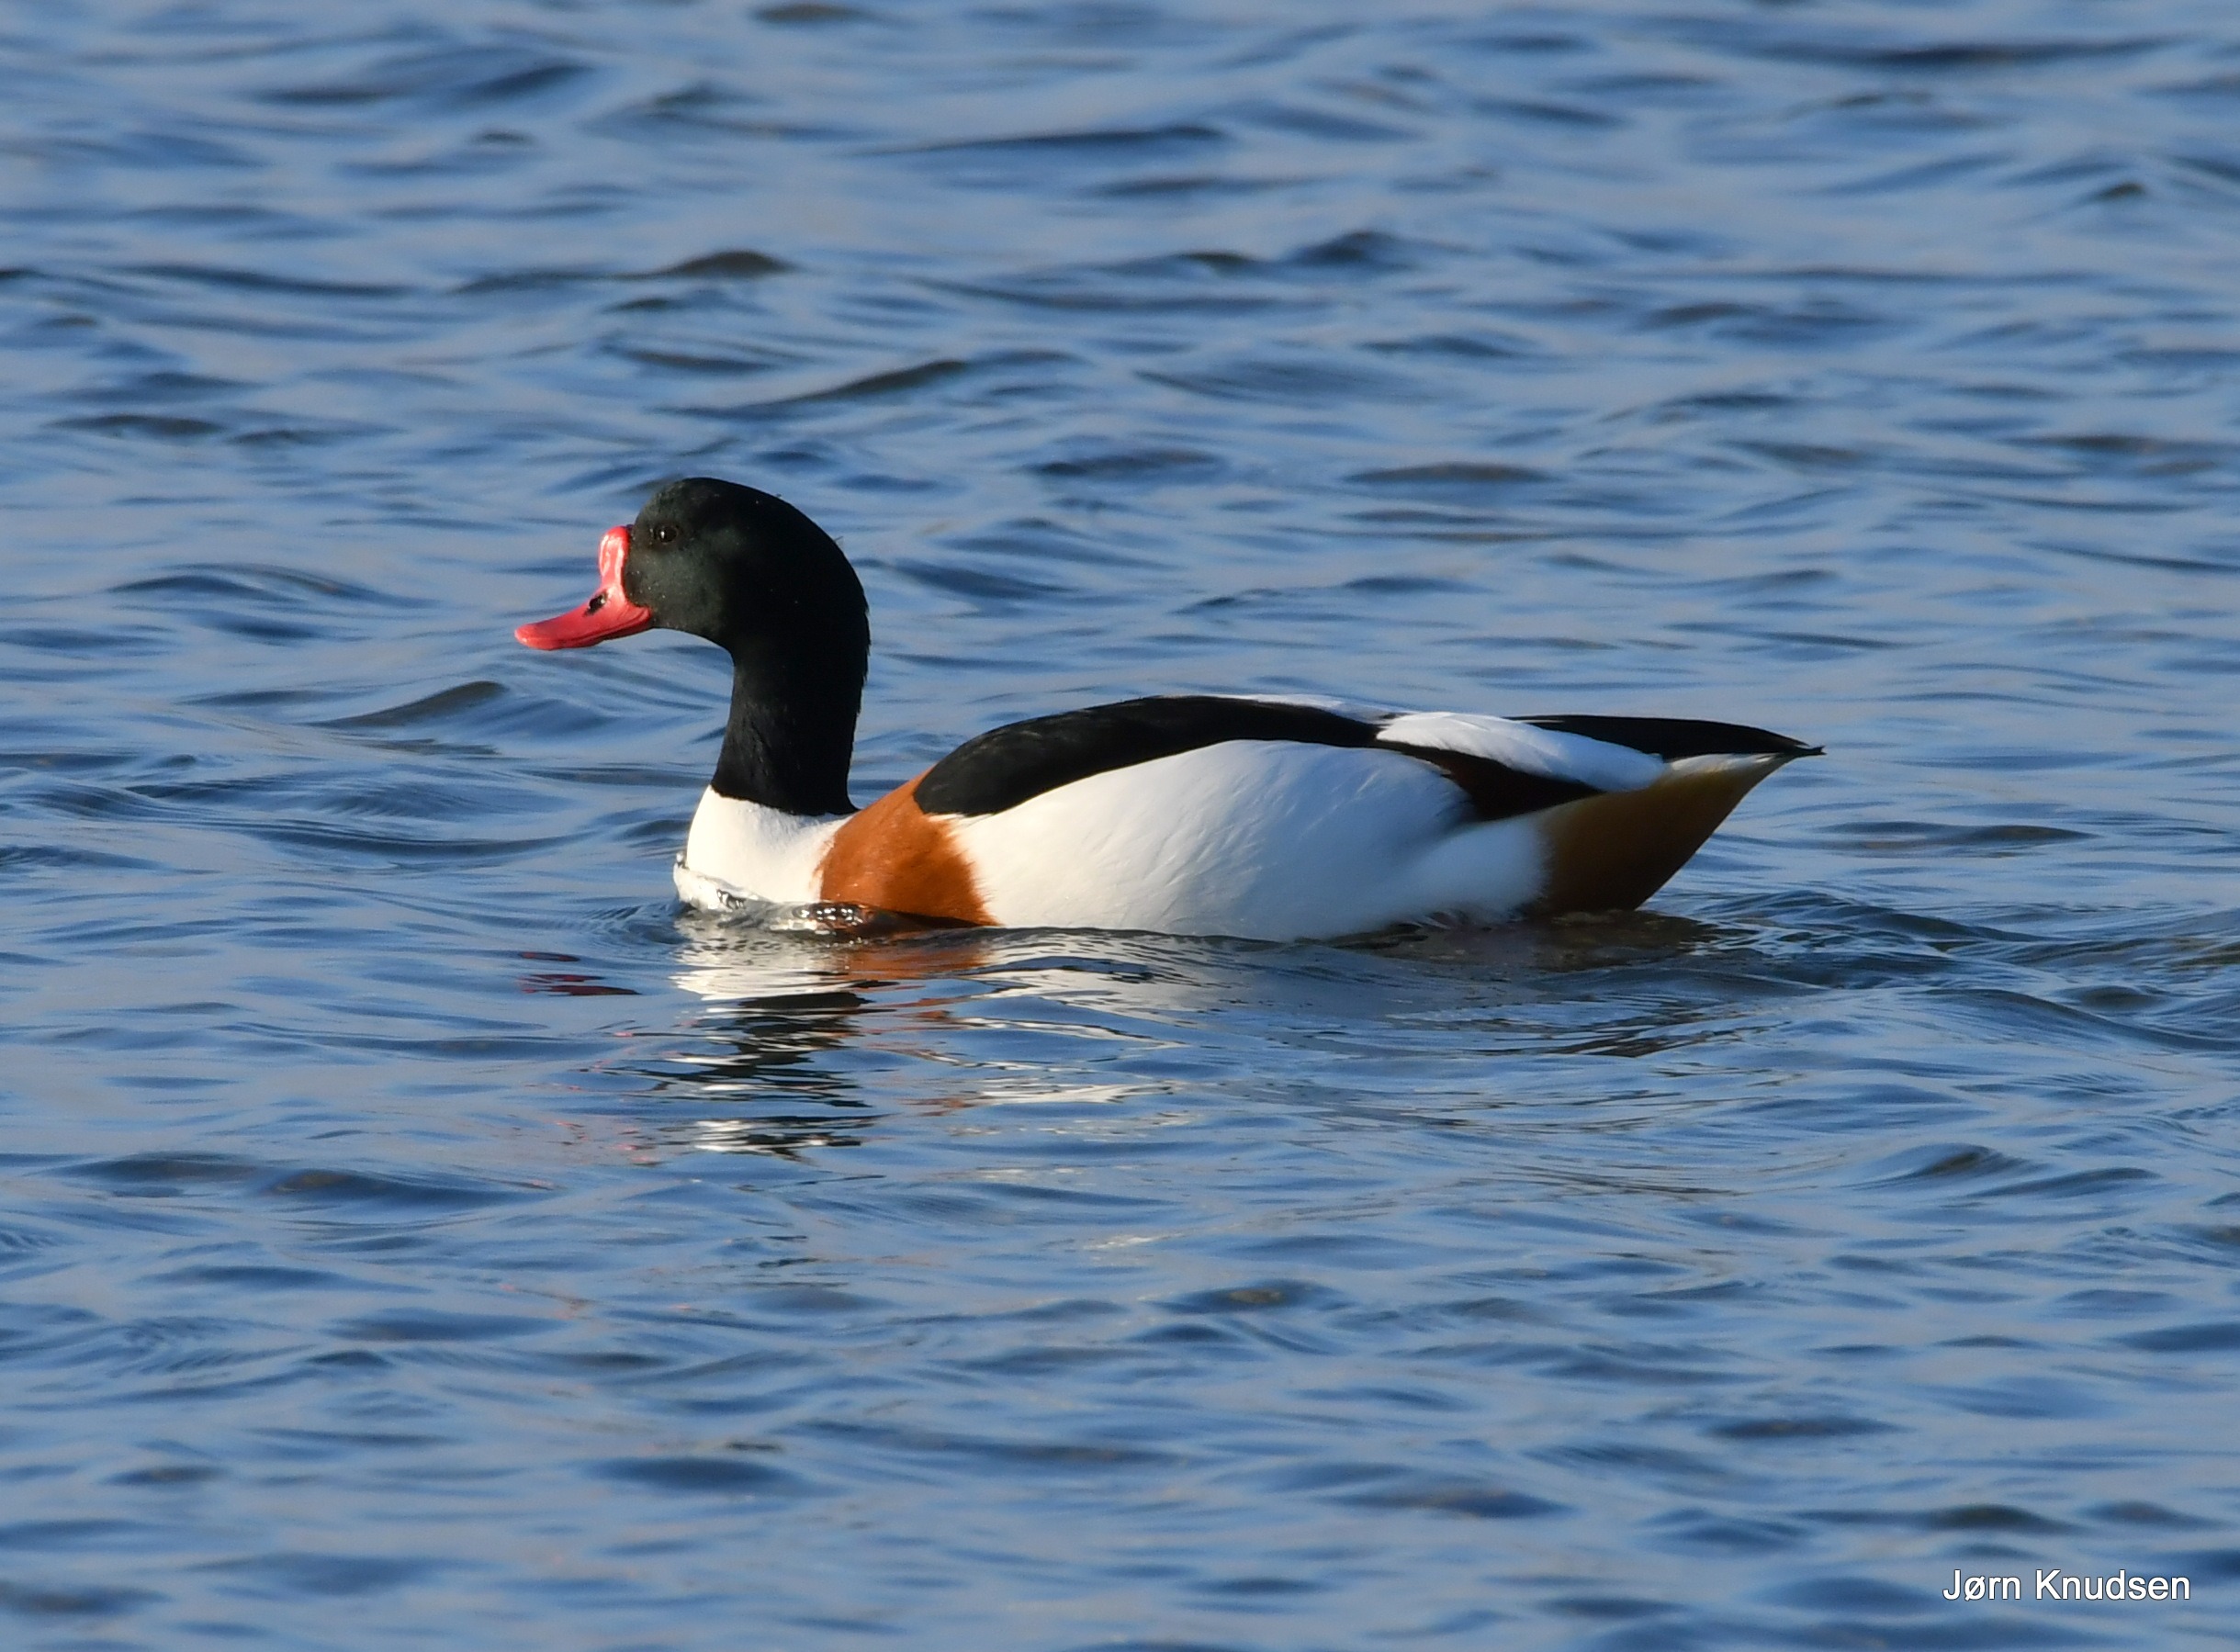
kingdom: Animalia
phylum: Chordata
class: Aves
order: Anseriformes
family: Anatidae
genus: Tadorna
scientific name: Tadorna tadorna
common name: Gravand
